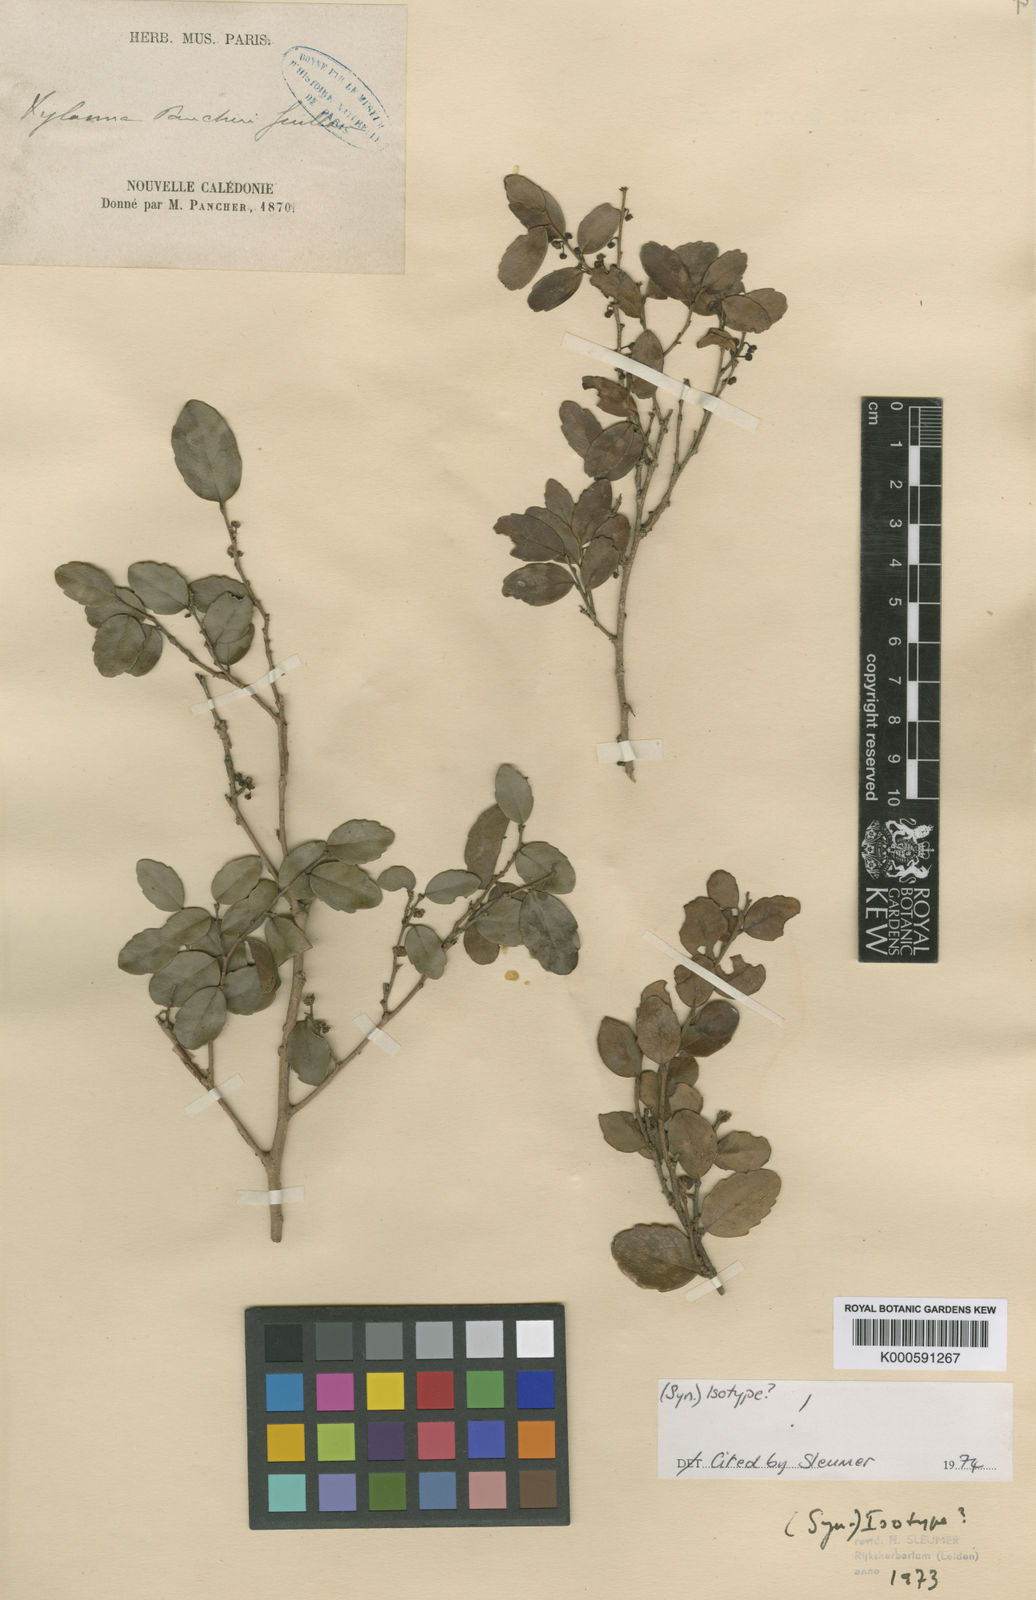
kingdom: Plantae
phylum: Tracheophyta
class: Magnoliopsida
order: Malpighiales
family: Salicaceae
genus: Xylosma
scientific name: Xylosma pancheri
